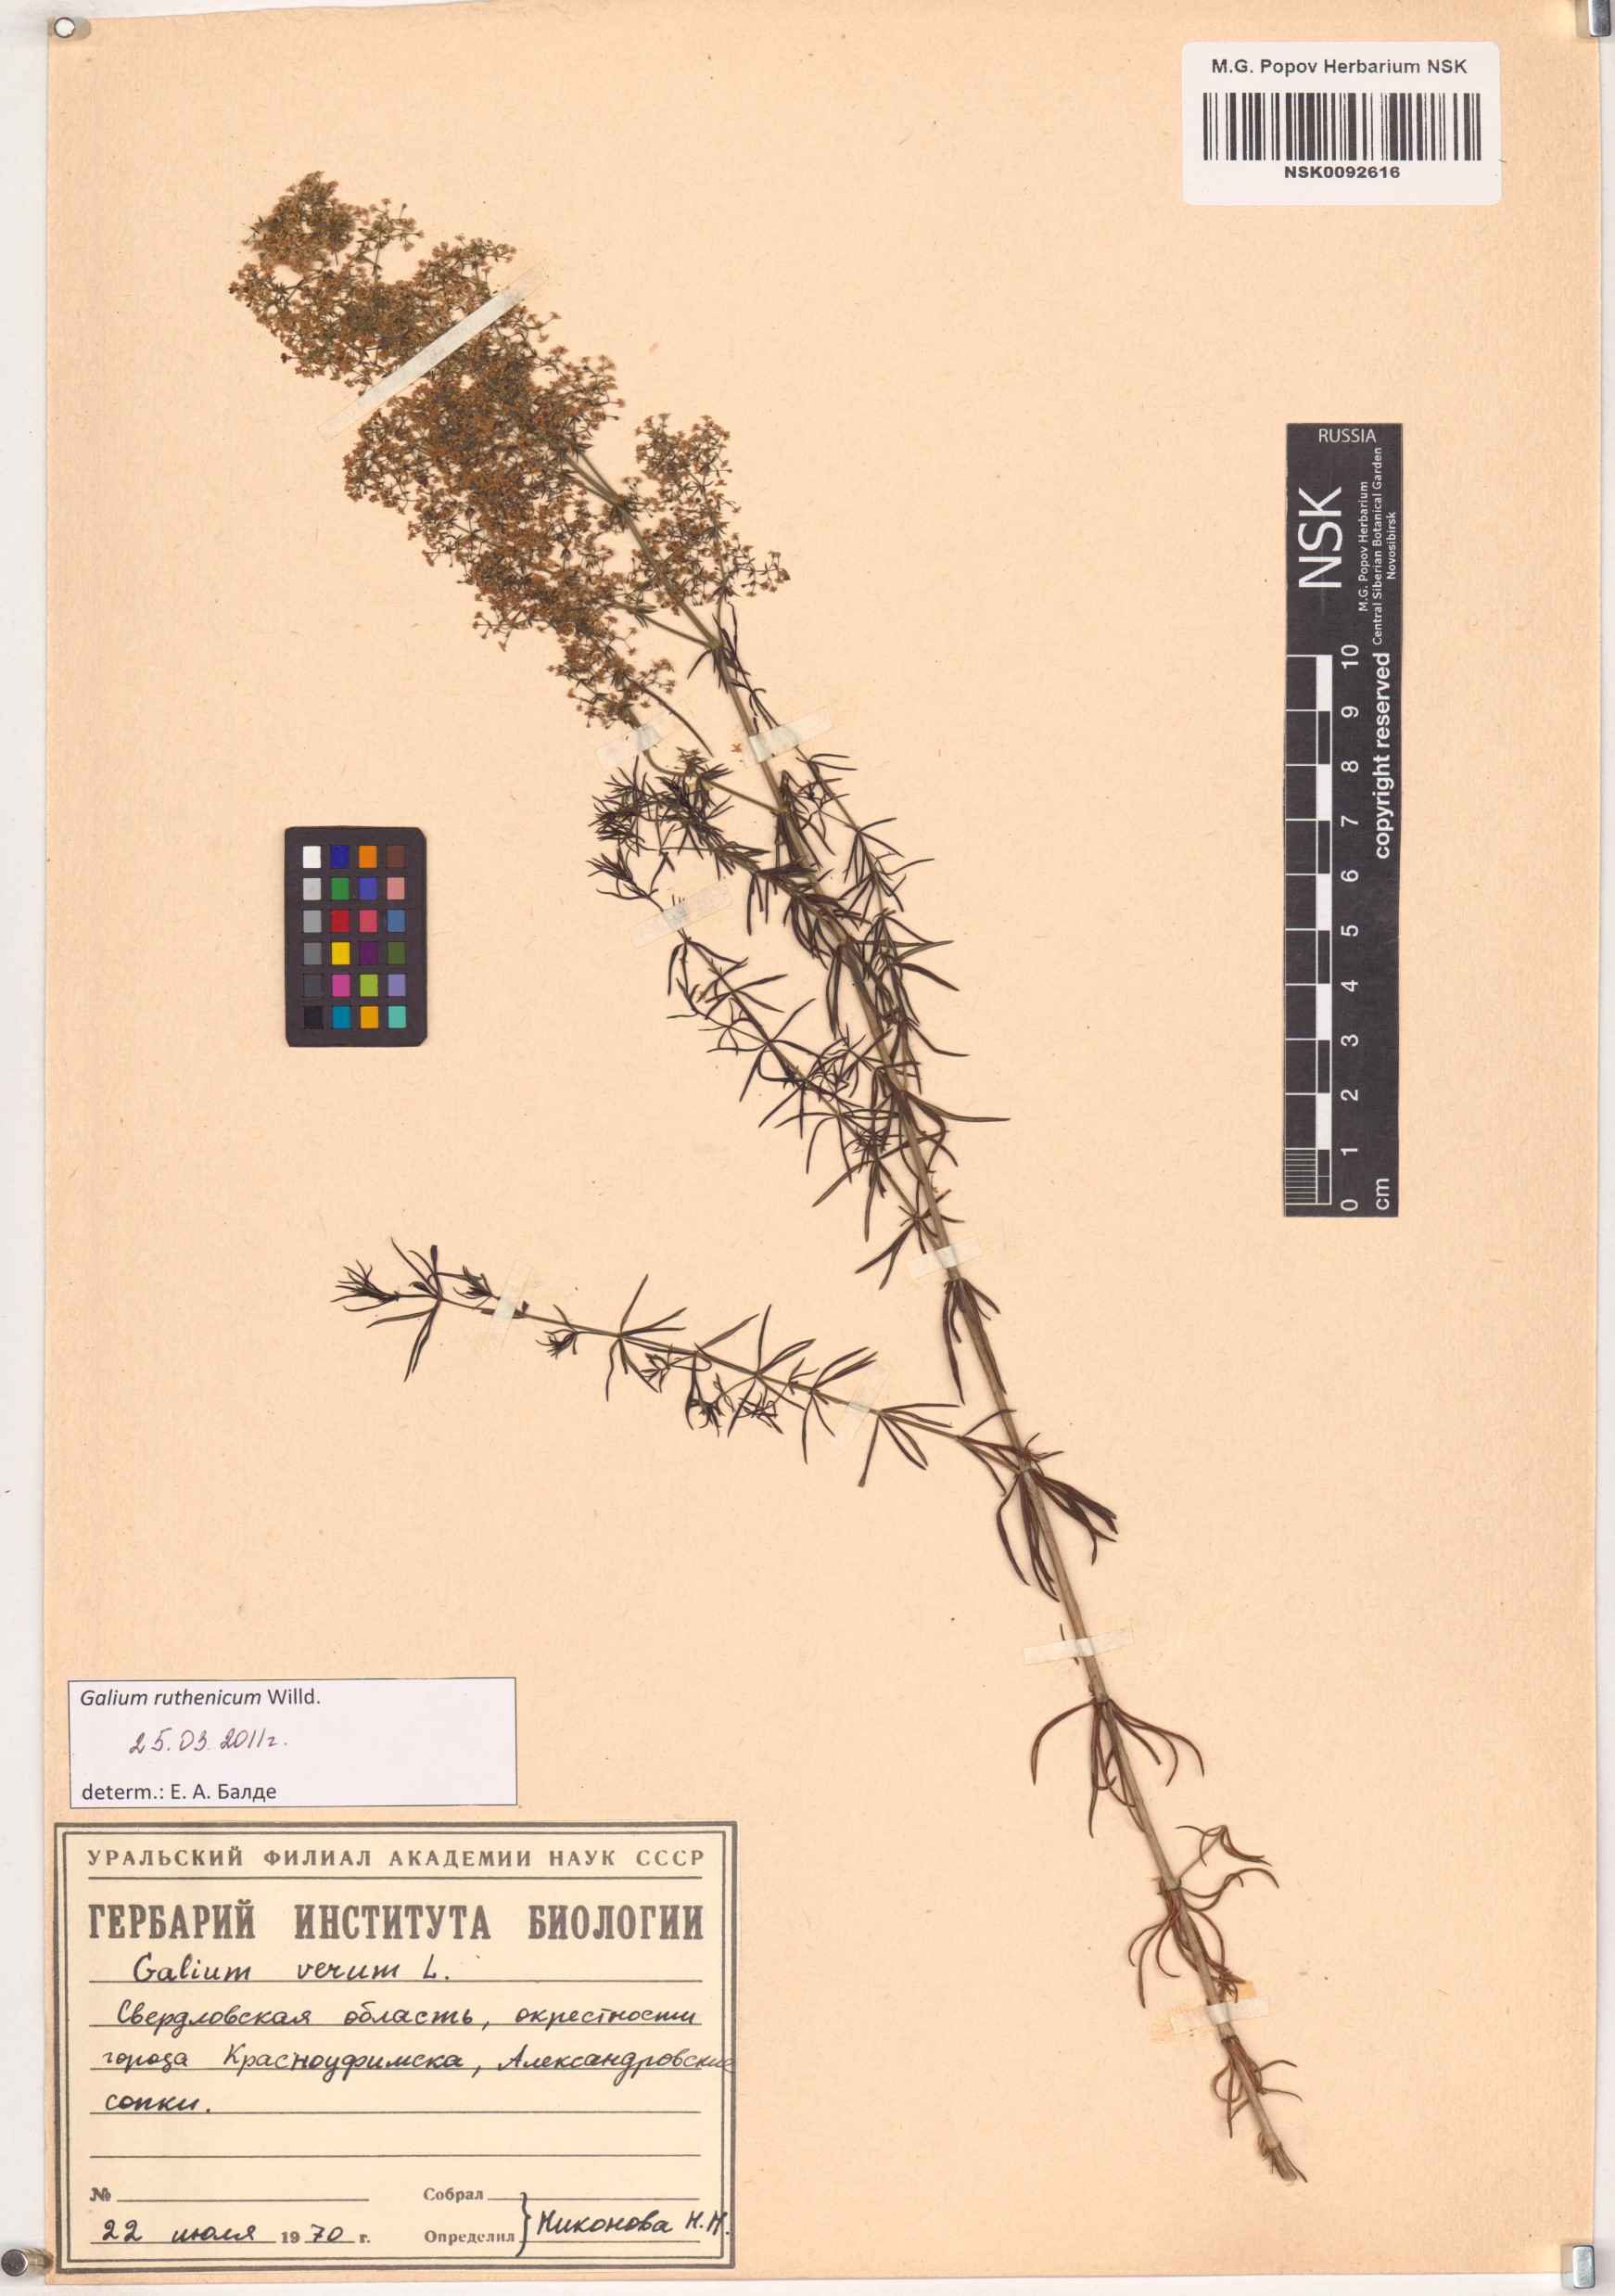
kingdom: Plantae
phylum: Tracheophyta
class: Magnoliopsida
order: Gentianales
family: Rubiaceae
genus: Galium
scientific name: Galium verum
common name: Lady's bedstraw
